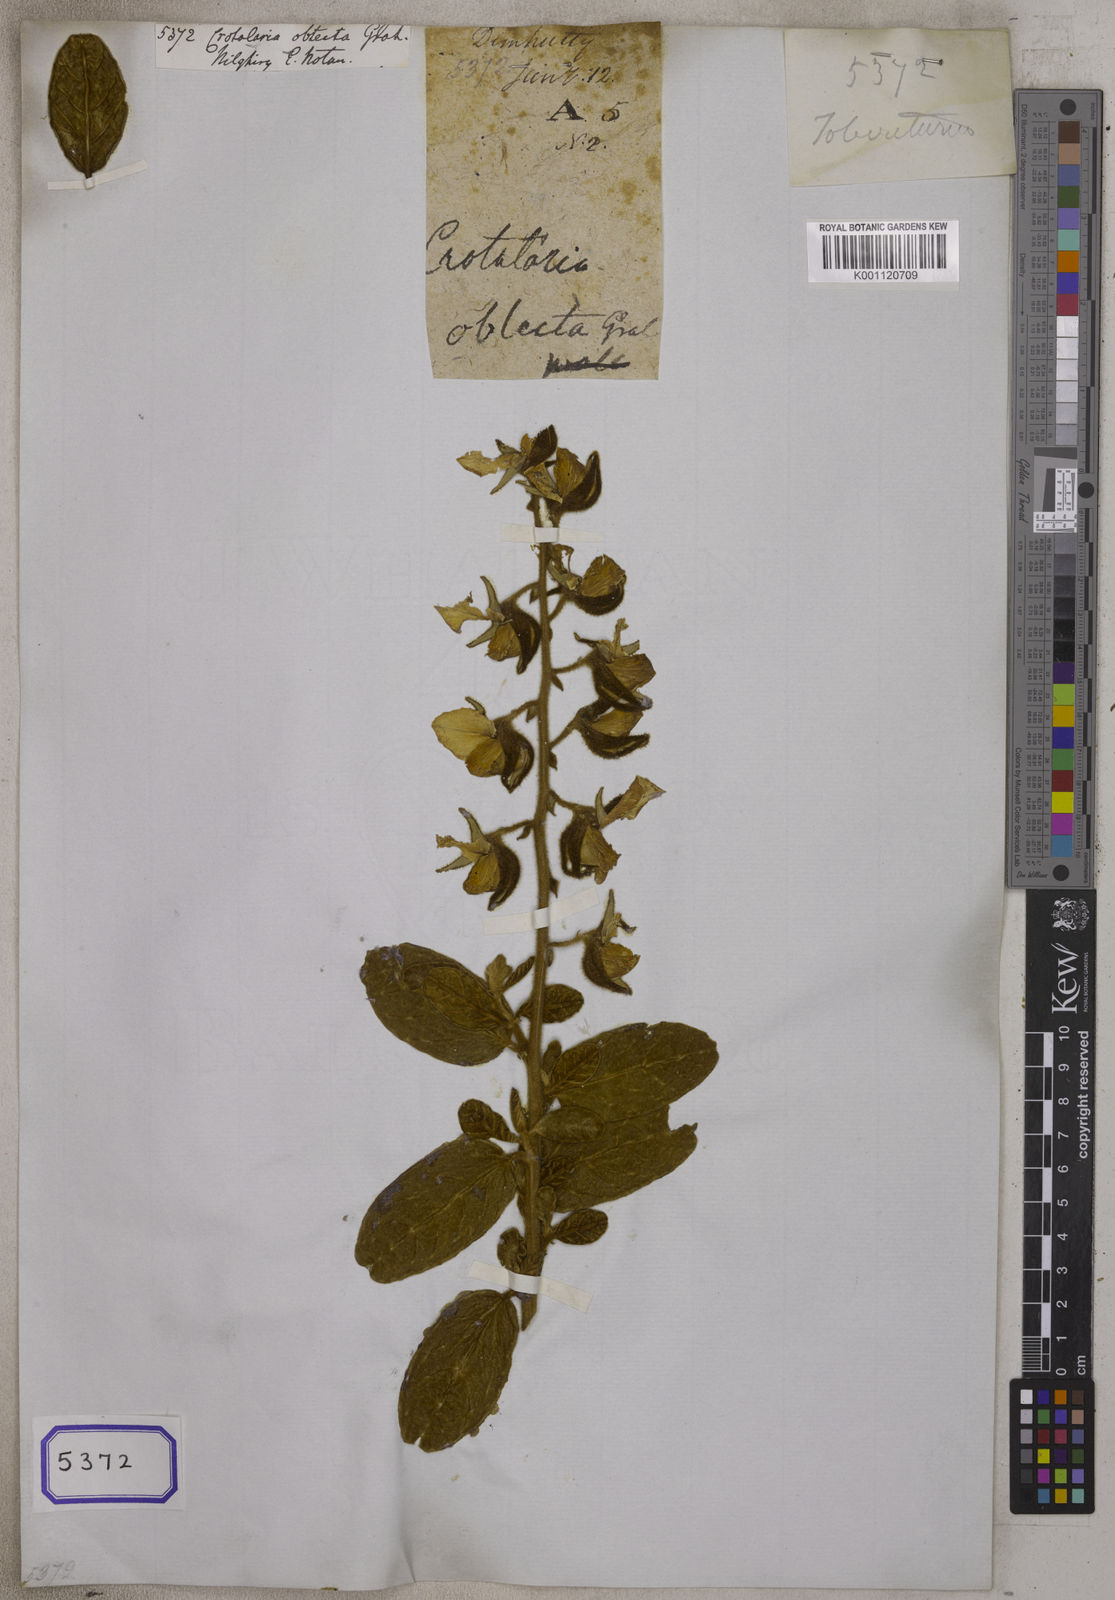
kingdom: Plantae
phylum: Tracheophyta
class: Magnoliopsida
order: Fabales
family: Fabaceae
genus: Crotalaria
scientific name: Crotalaria
